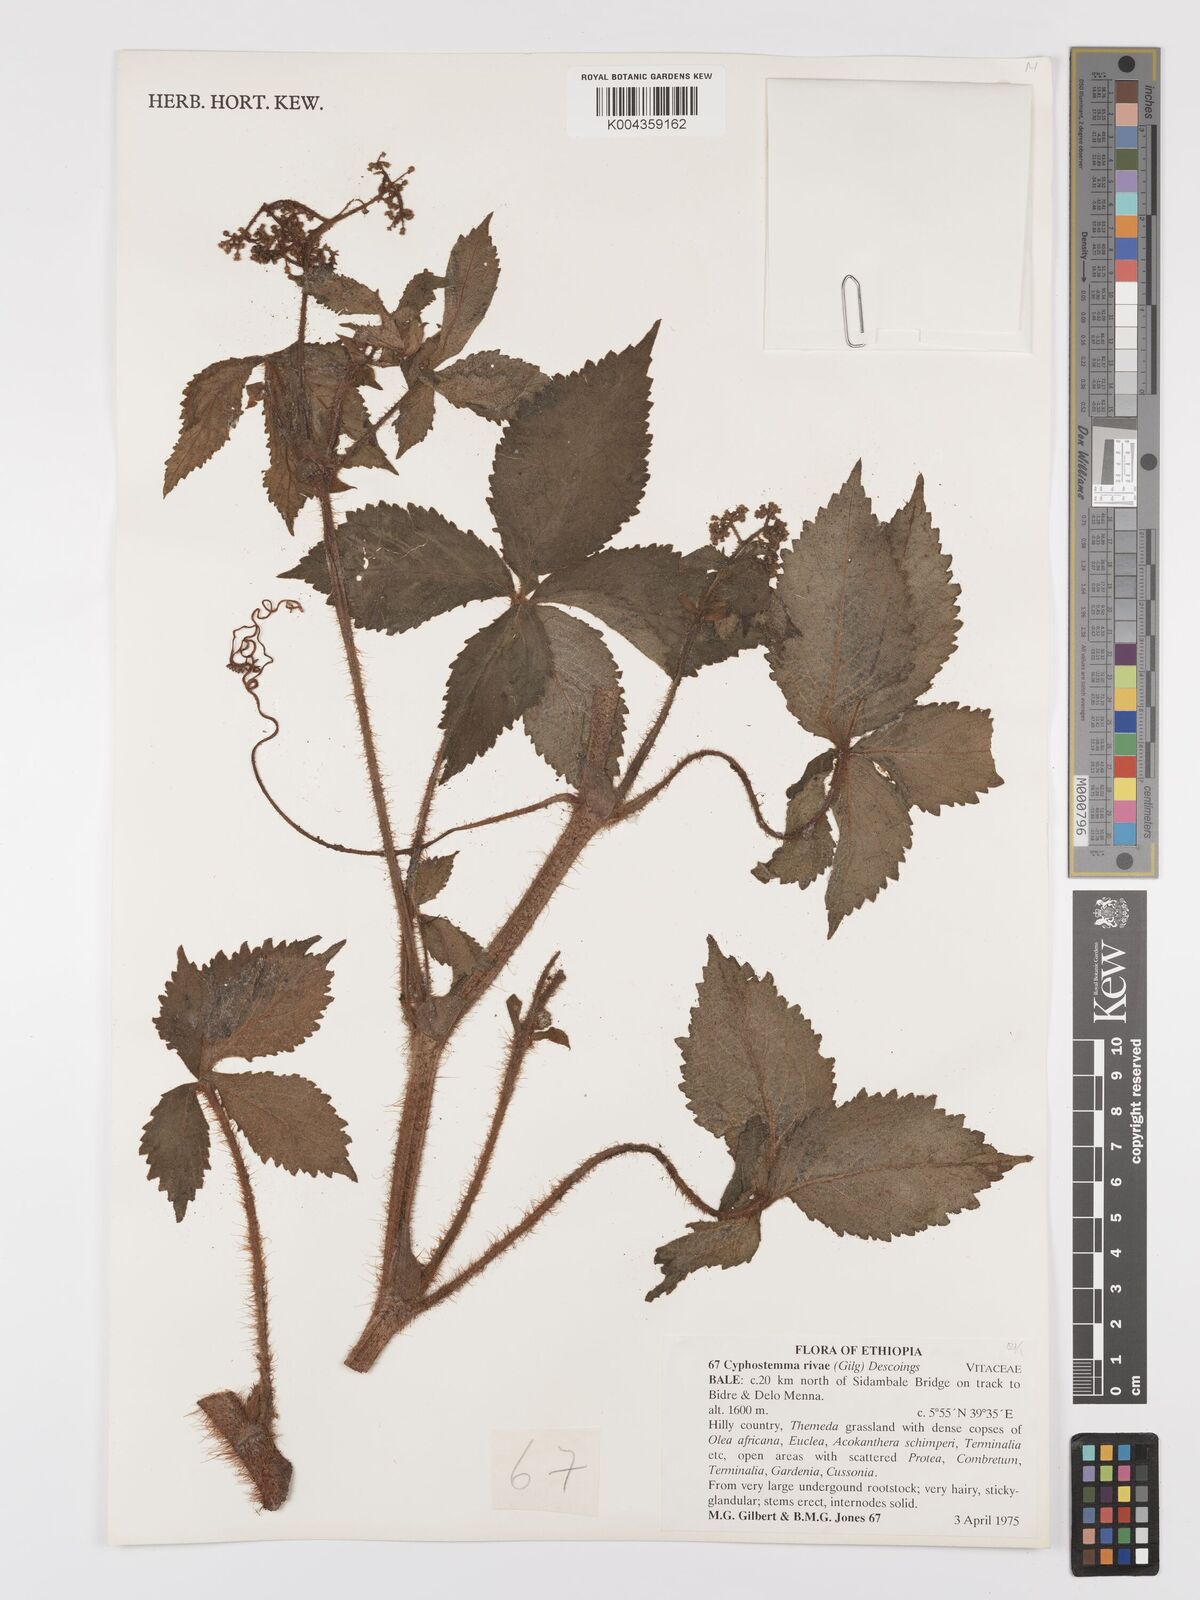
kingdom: Plantae
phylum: Tracheophyta
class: Magnoliopsida
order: Vitales
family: Vitaceae
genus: Cyphostemma
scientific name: Cyphostemma rivae
